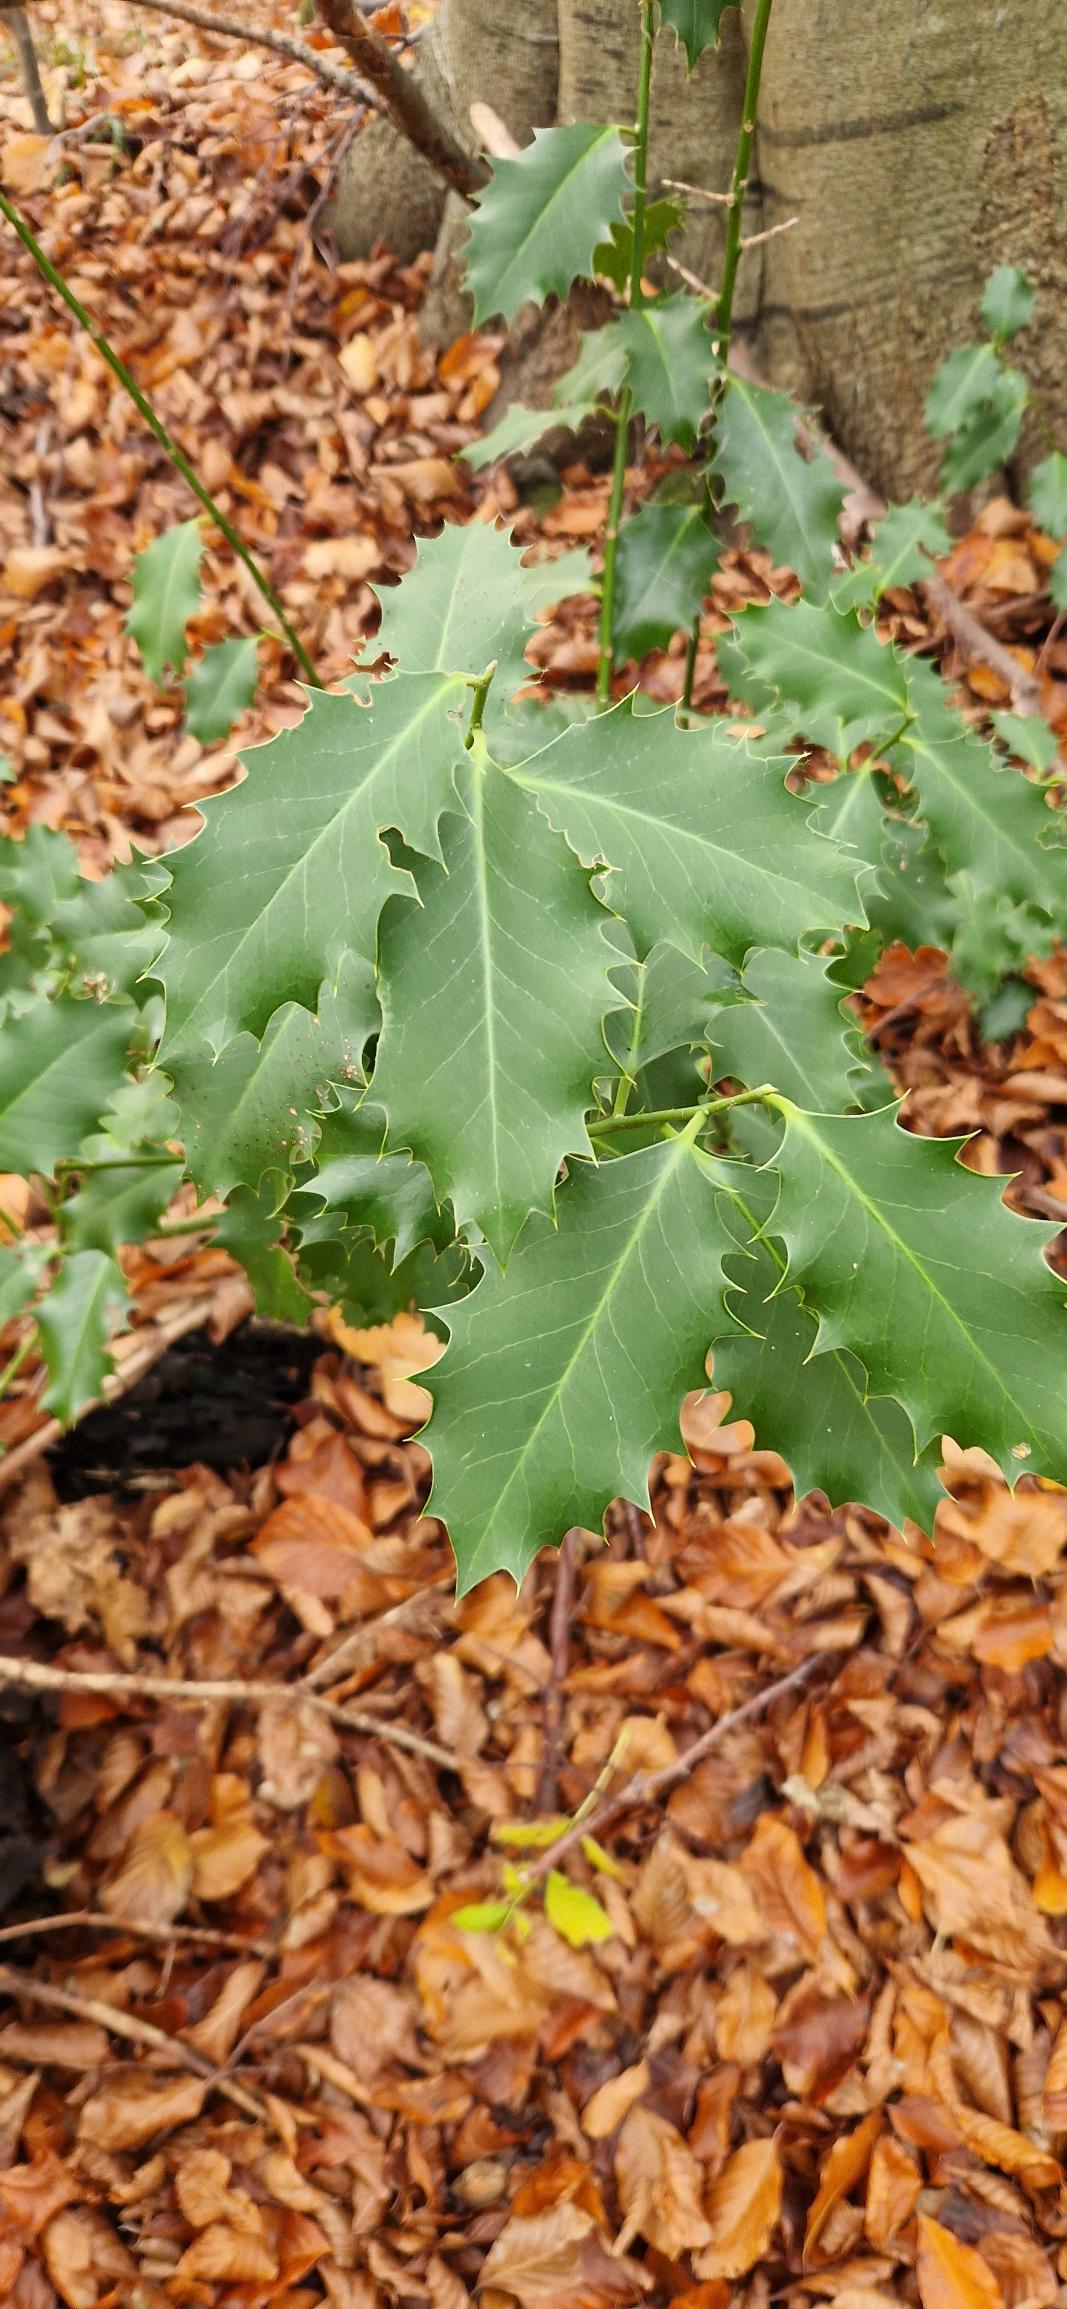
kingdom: Plantae
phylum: Tracheophyta
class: Magnoliopsida
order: Aquifoliales
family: Aquifoliaceae
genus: Ilex
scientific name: Ilex aquifolium
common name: Kristtorn
